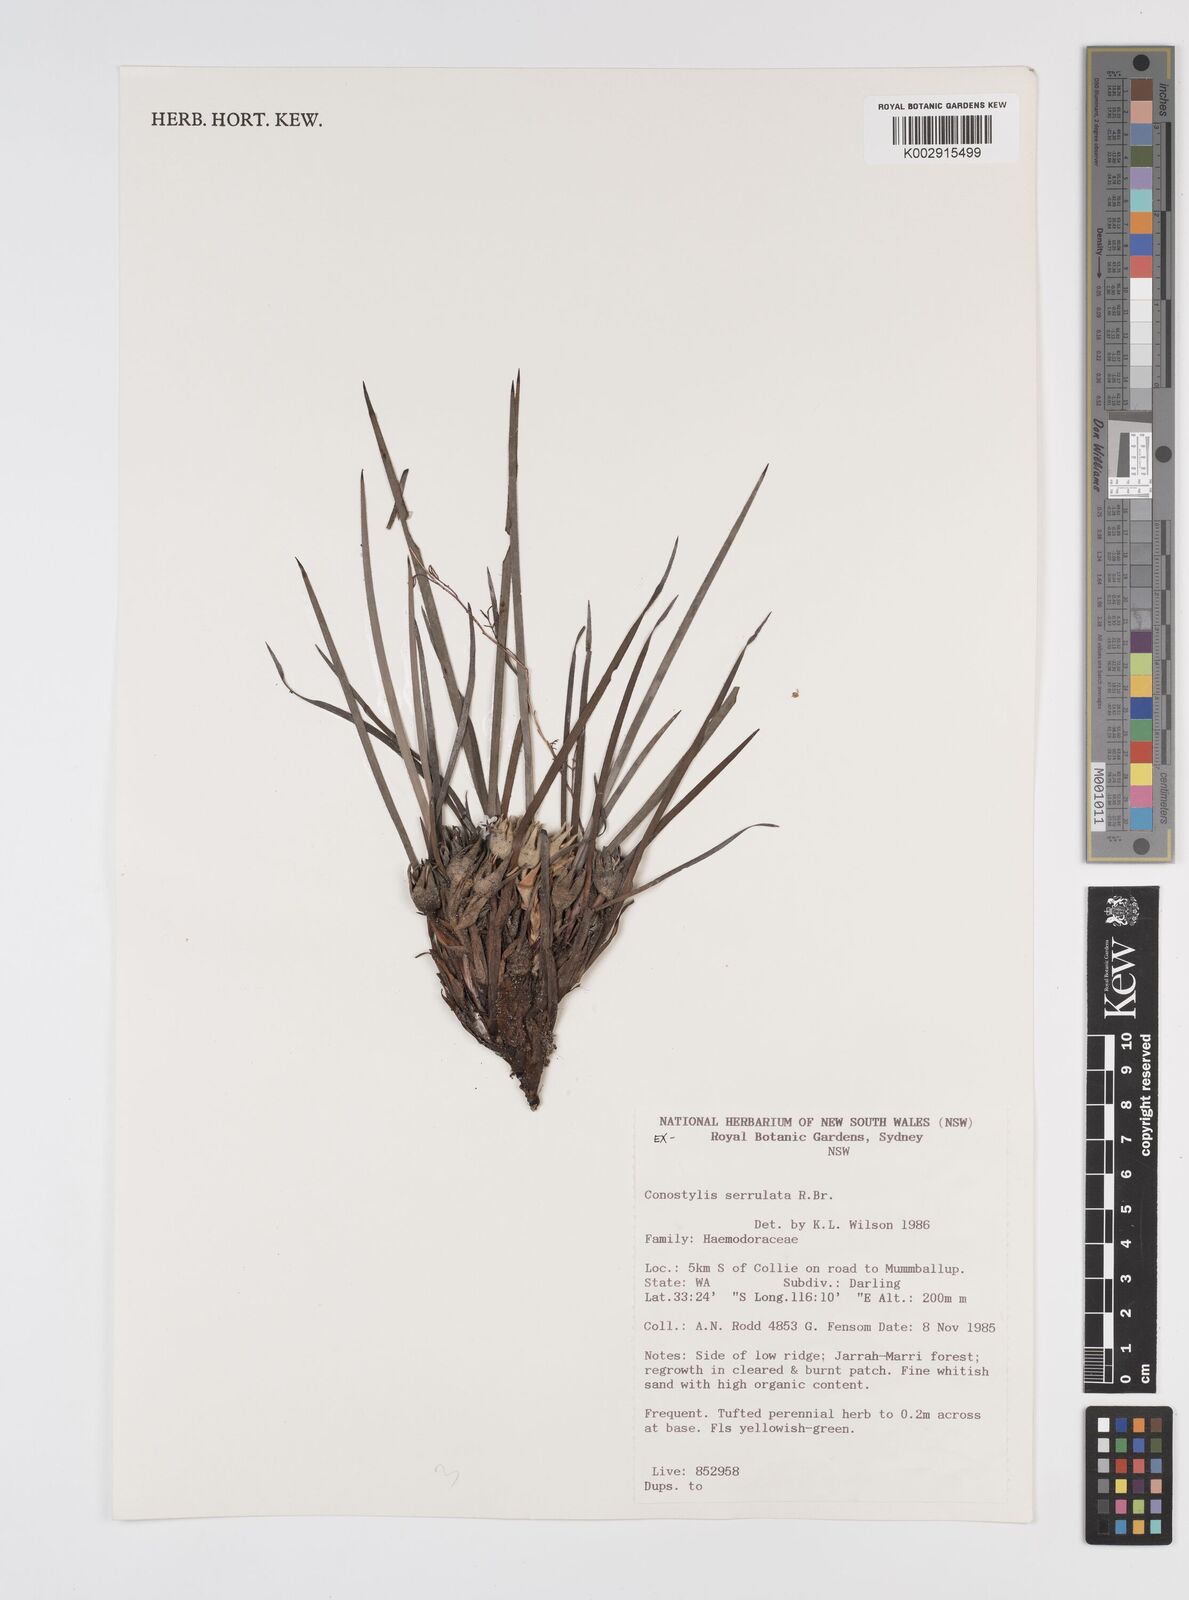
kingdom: Plantae
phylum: Tracheophyta
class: Liliopsida
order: Commelinales
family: Haemodoraceae
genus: Conostylis
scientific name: Conostylis serrulata
